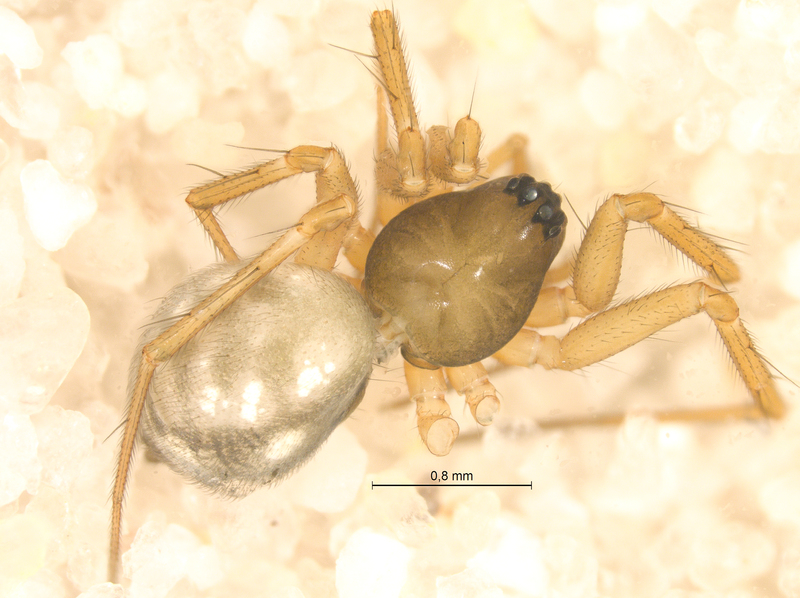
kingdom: Animalia
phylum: Arthropoda
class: Arachnida
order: Araneae
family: Linyphiidae
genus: Tenuiphantes
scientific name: Tenuiphantes tenebricola
